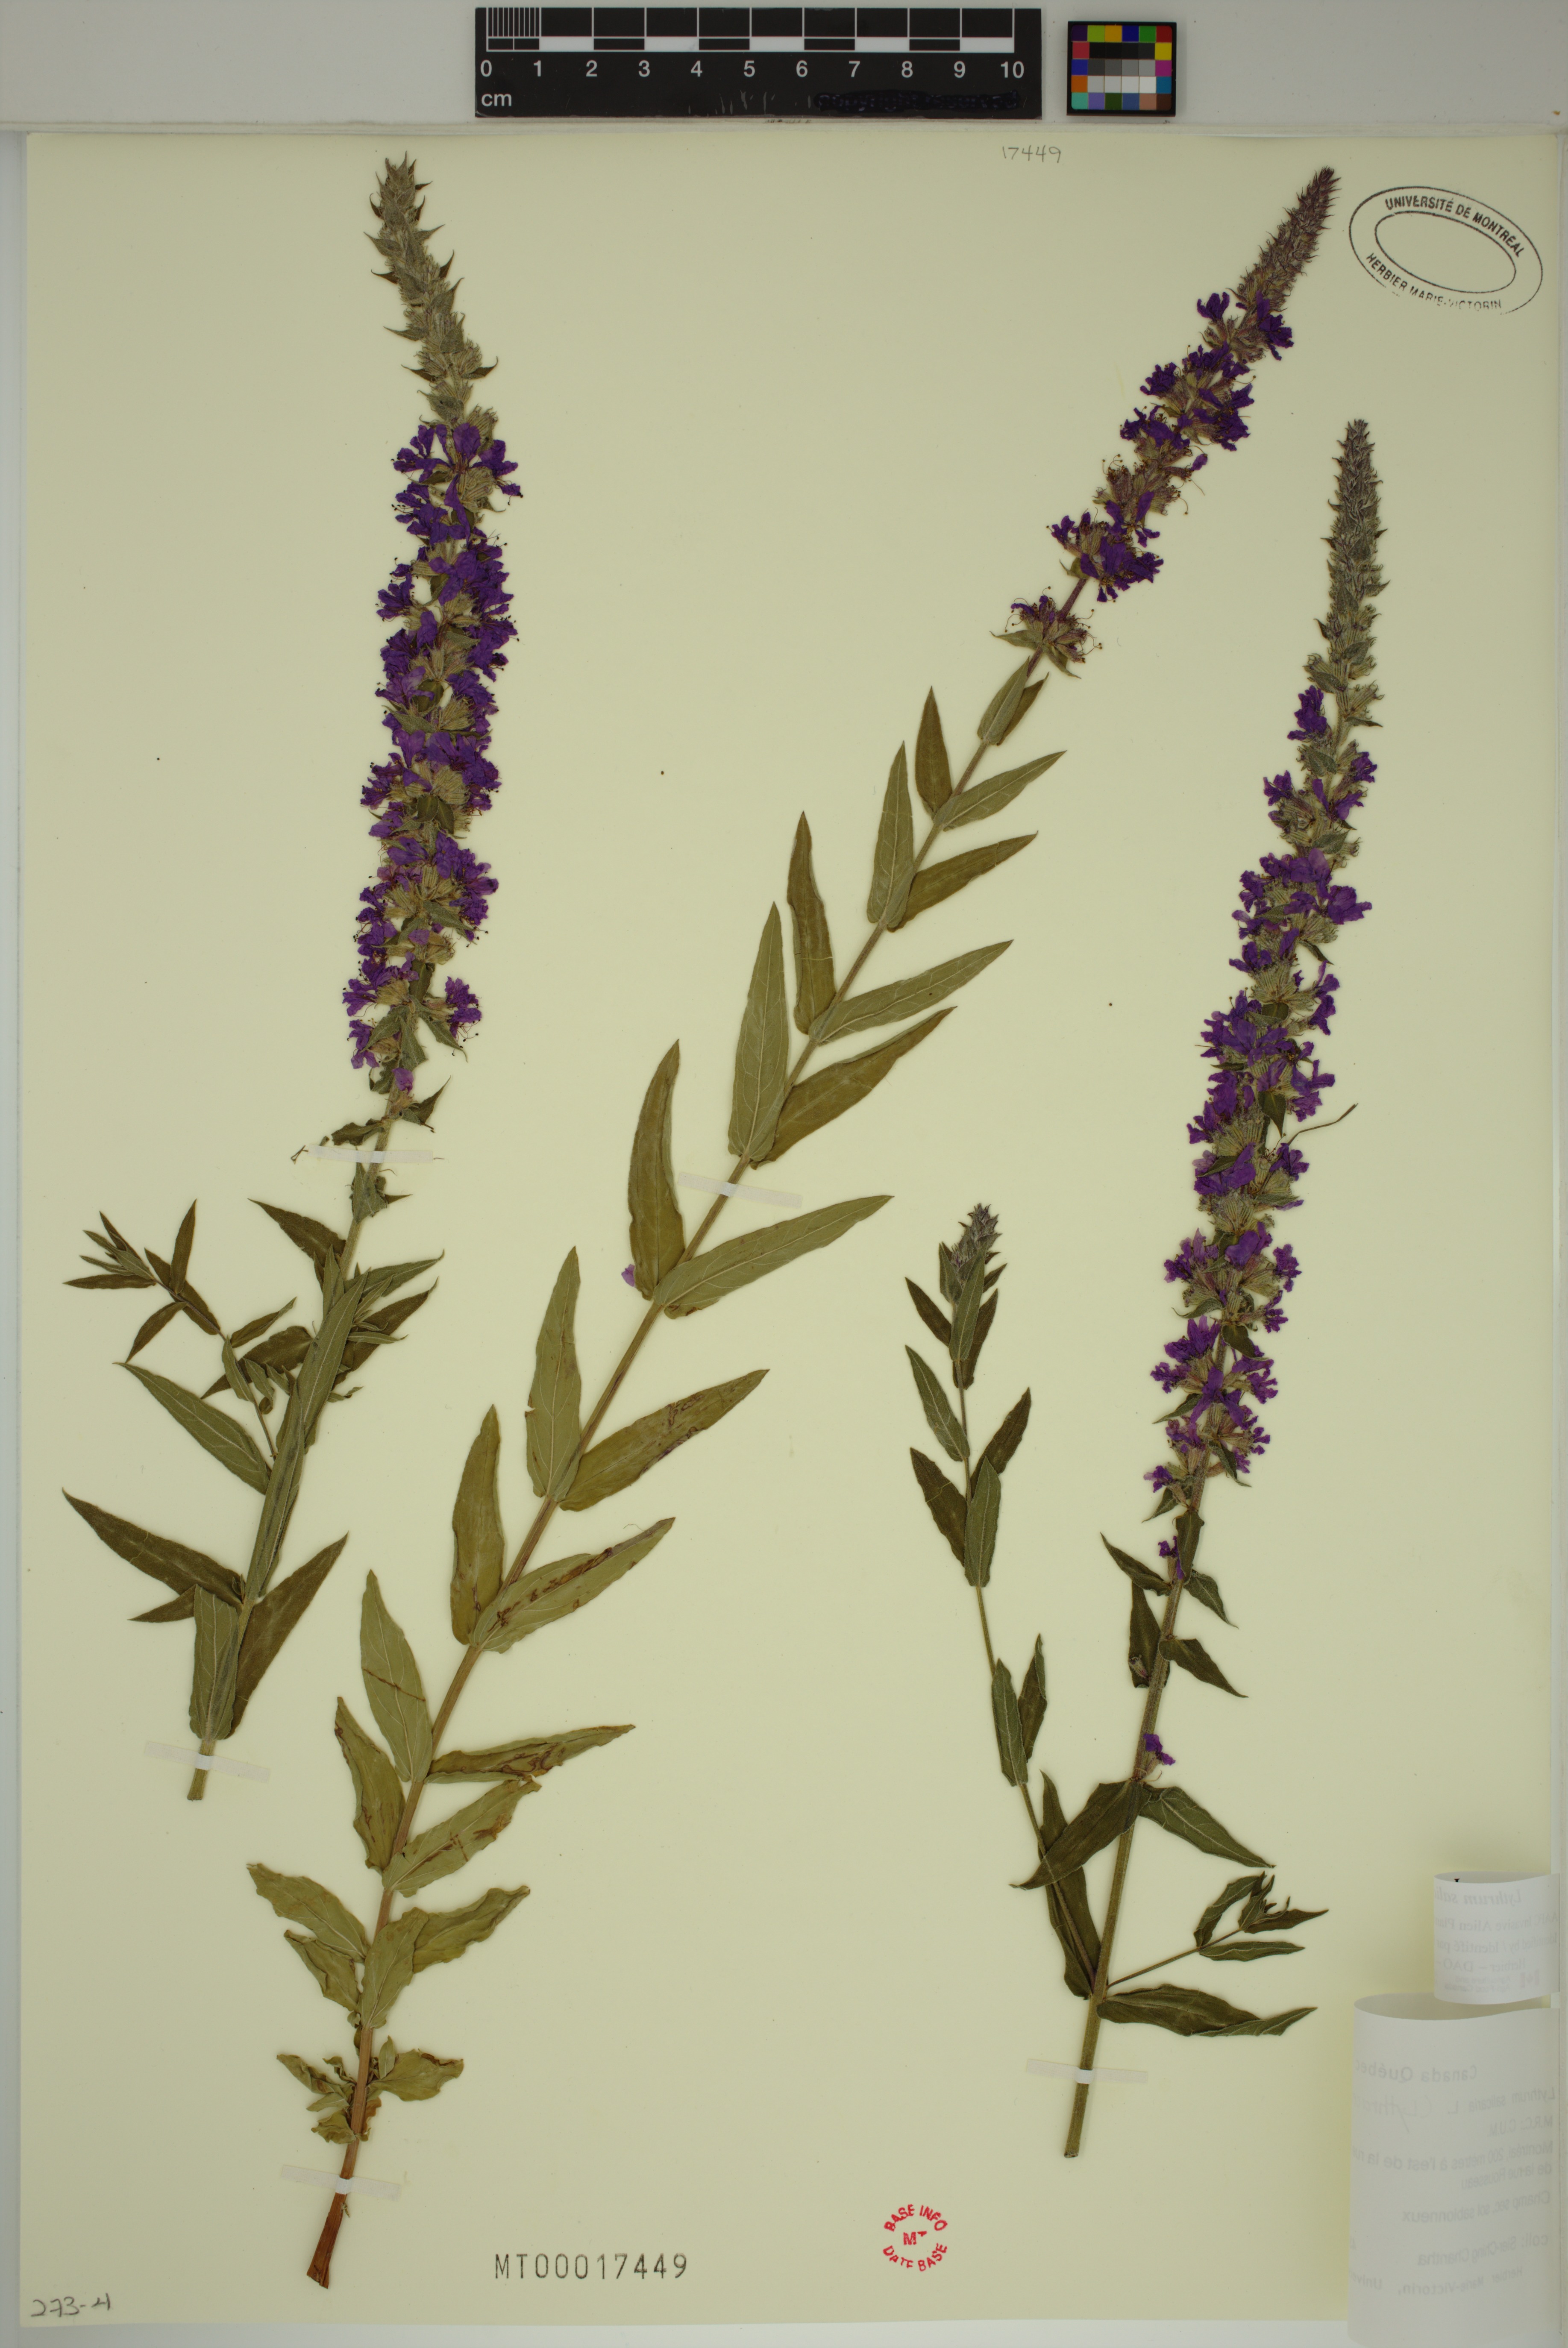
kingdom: Plantae
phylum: Tracheophyta
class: Magnoliopsida
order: Myrtales
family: Lythraceae
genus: Lythrum
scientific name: Lythrum salicaria
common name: Purple loosestrife
